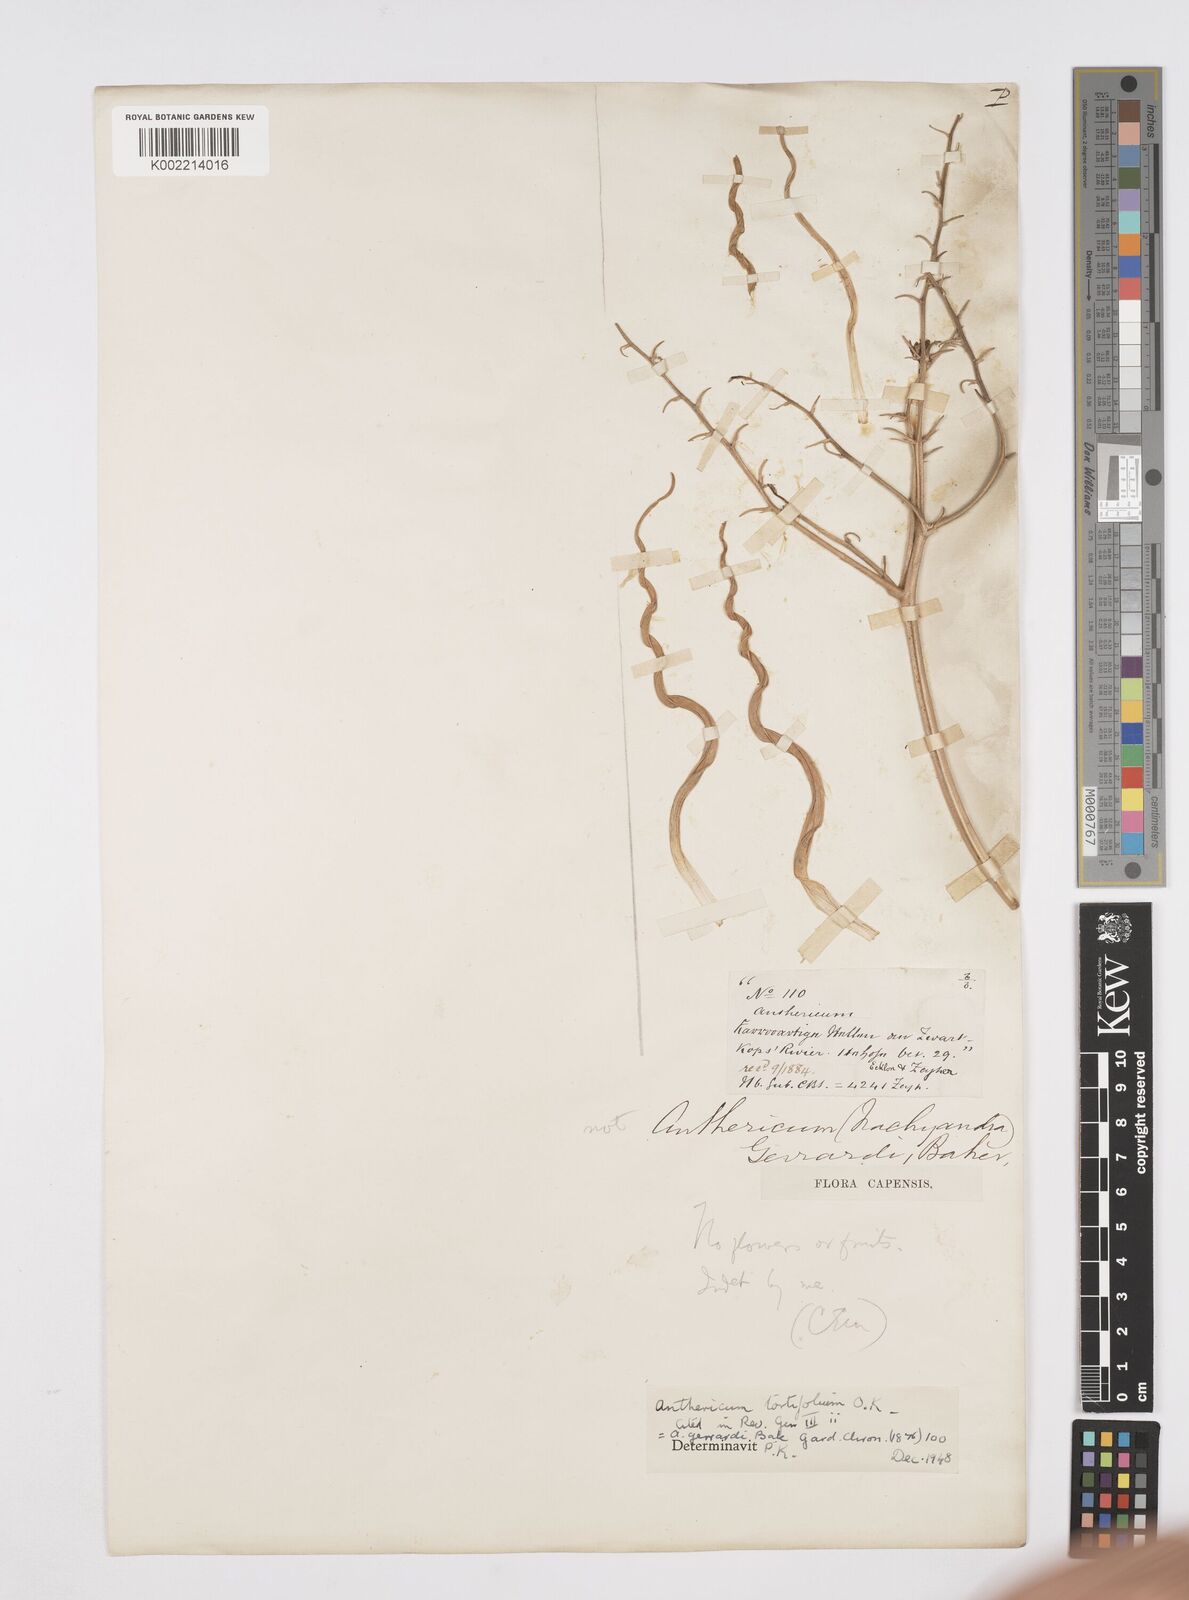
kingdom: Plantae
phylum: Tracheophyta
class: Liliopsida
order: Asparagales
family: Asphodelaceae
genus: Trachyandra
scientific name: Trachyandra gerrardii
